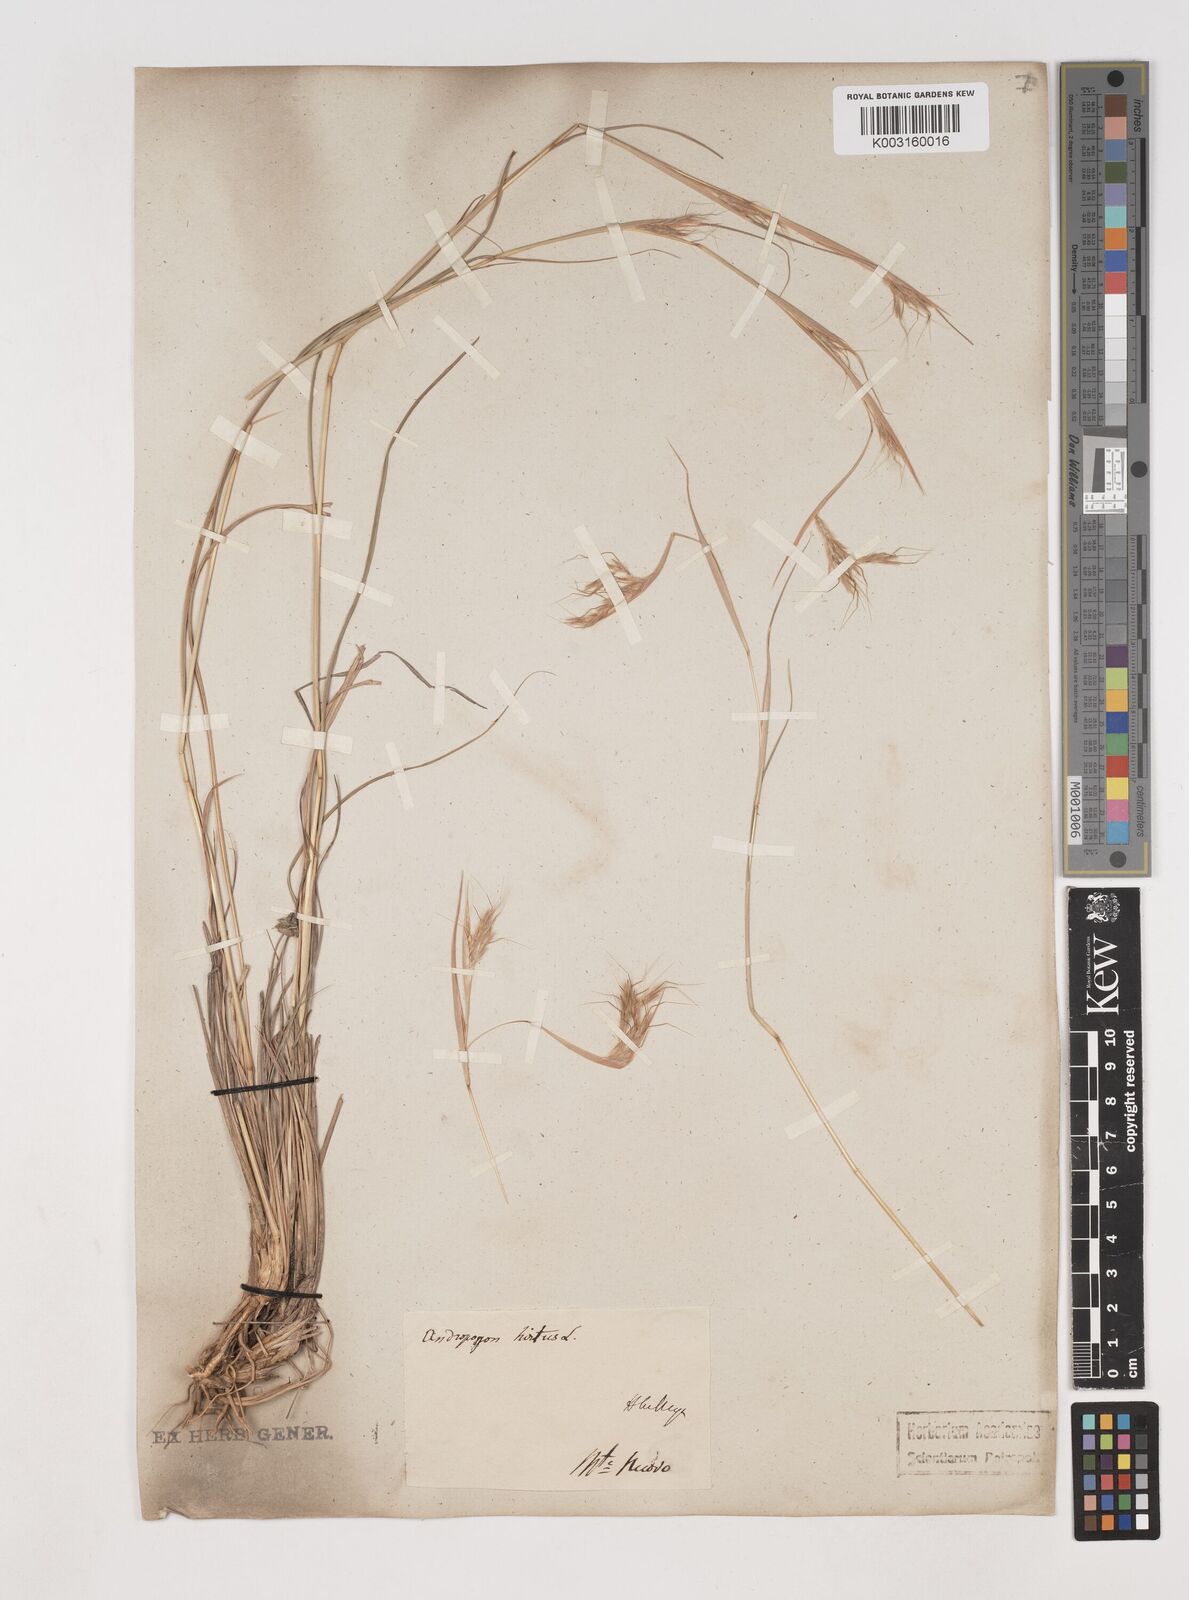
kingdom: Plantae
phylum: Tracheophyta
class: Liliopsida
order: Poales
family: Poaceae
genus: Hyparrhenia
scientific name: Hyparrhenia hirta
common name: Thatching grass
